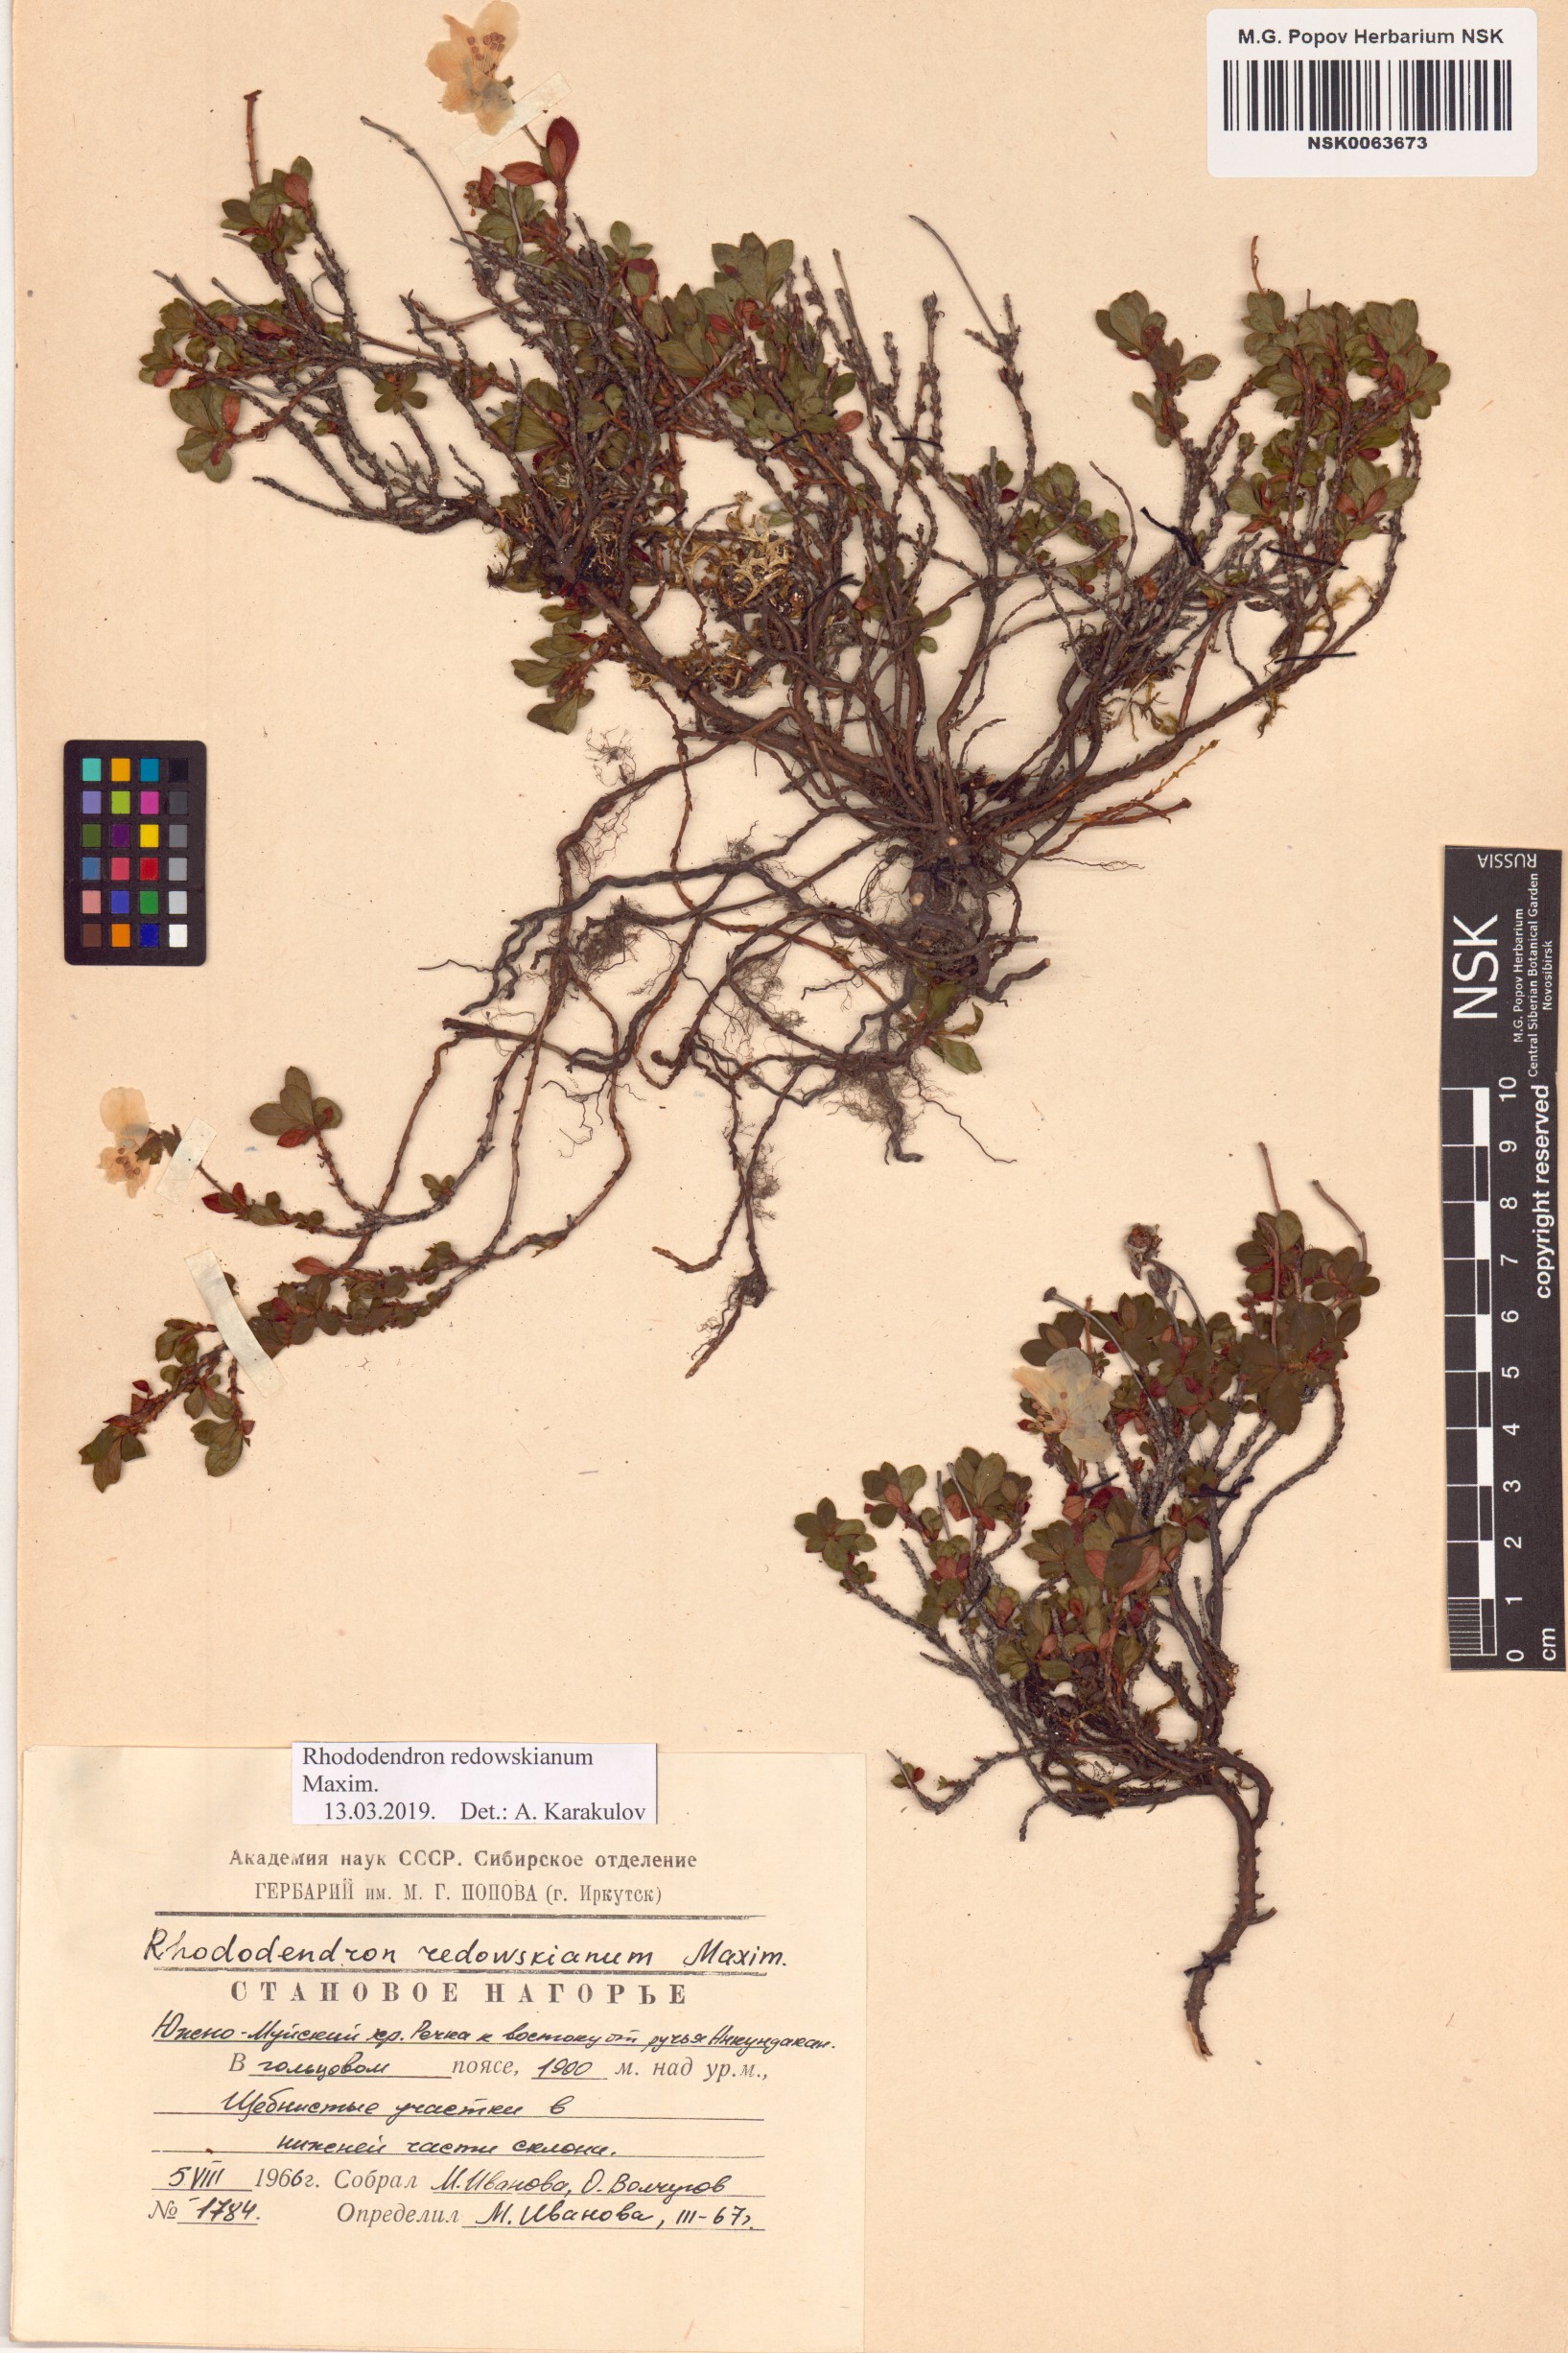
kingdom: Plantae
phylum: Tracheophyta
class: Magnoliopsida
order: Ericales
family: Ericaceae
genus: Rhododendron
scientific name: Rhododendron redowskianum
